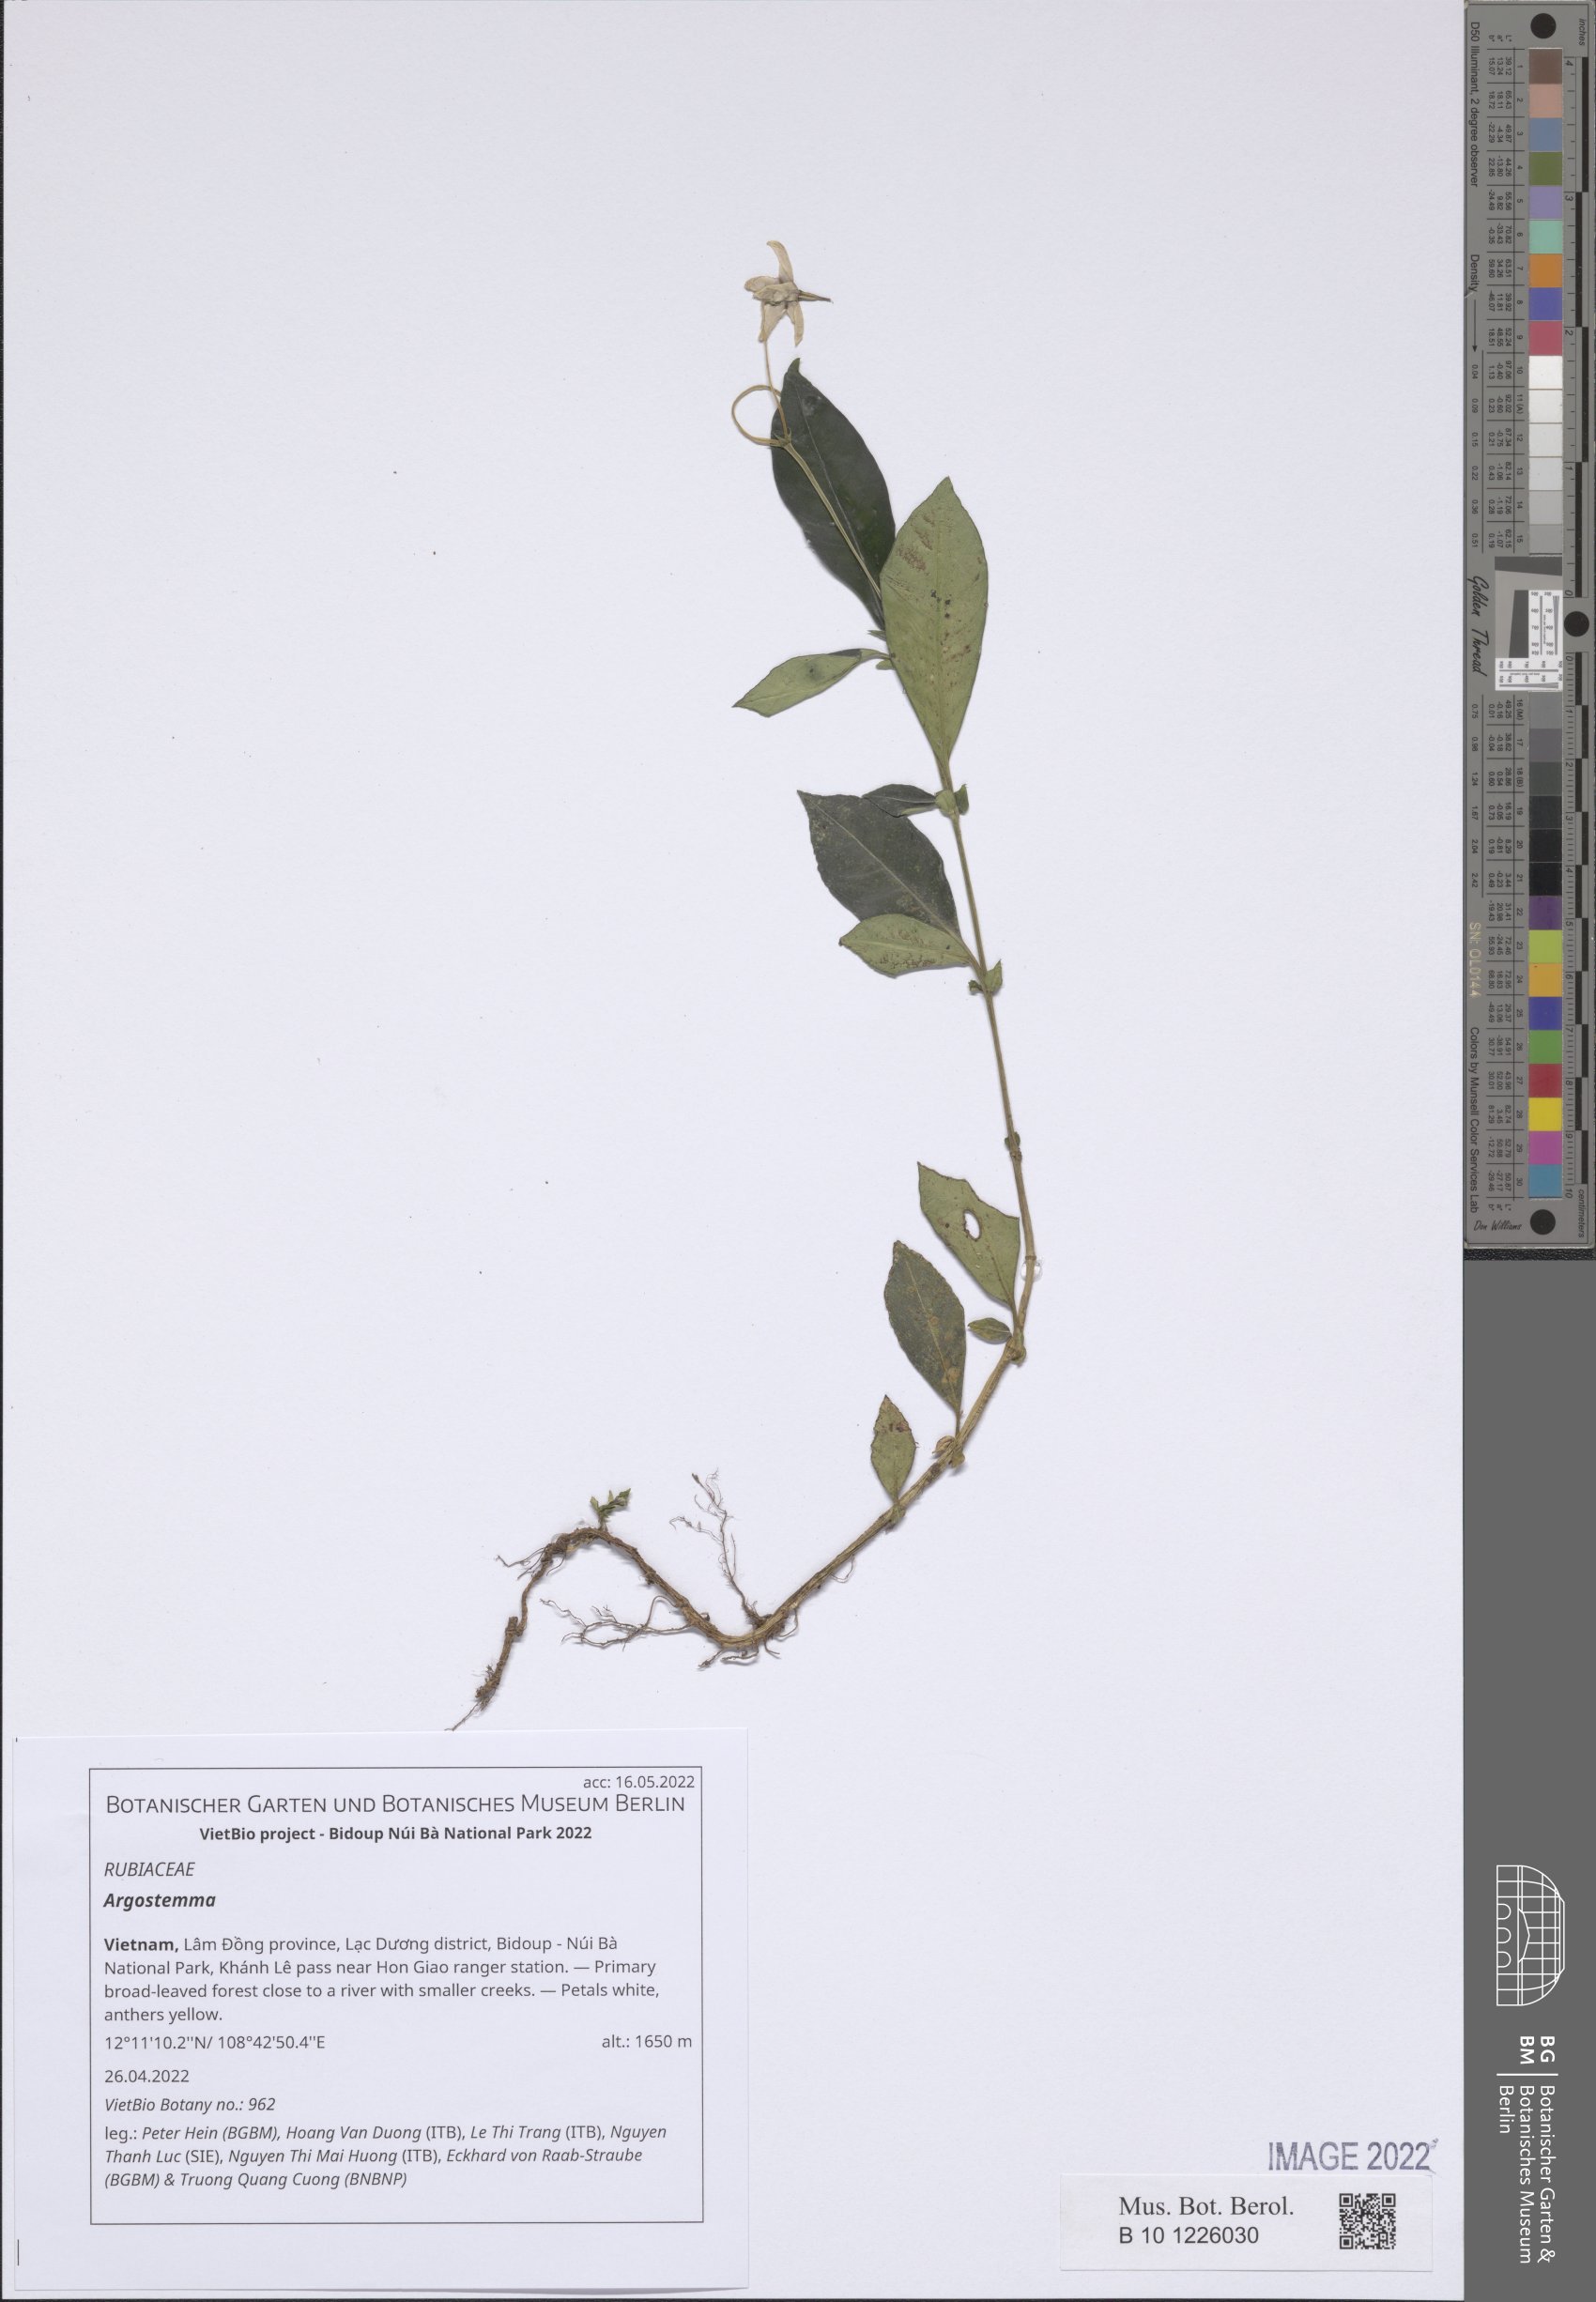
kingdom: Plantae
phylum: Tracheophyta
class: Magnoliopsida
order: Gentianales
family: Rubiaceae
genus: Argostemma
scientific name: Argostemma
